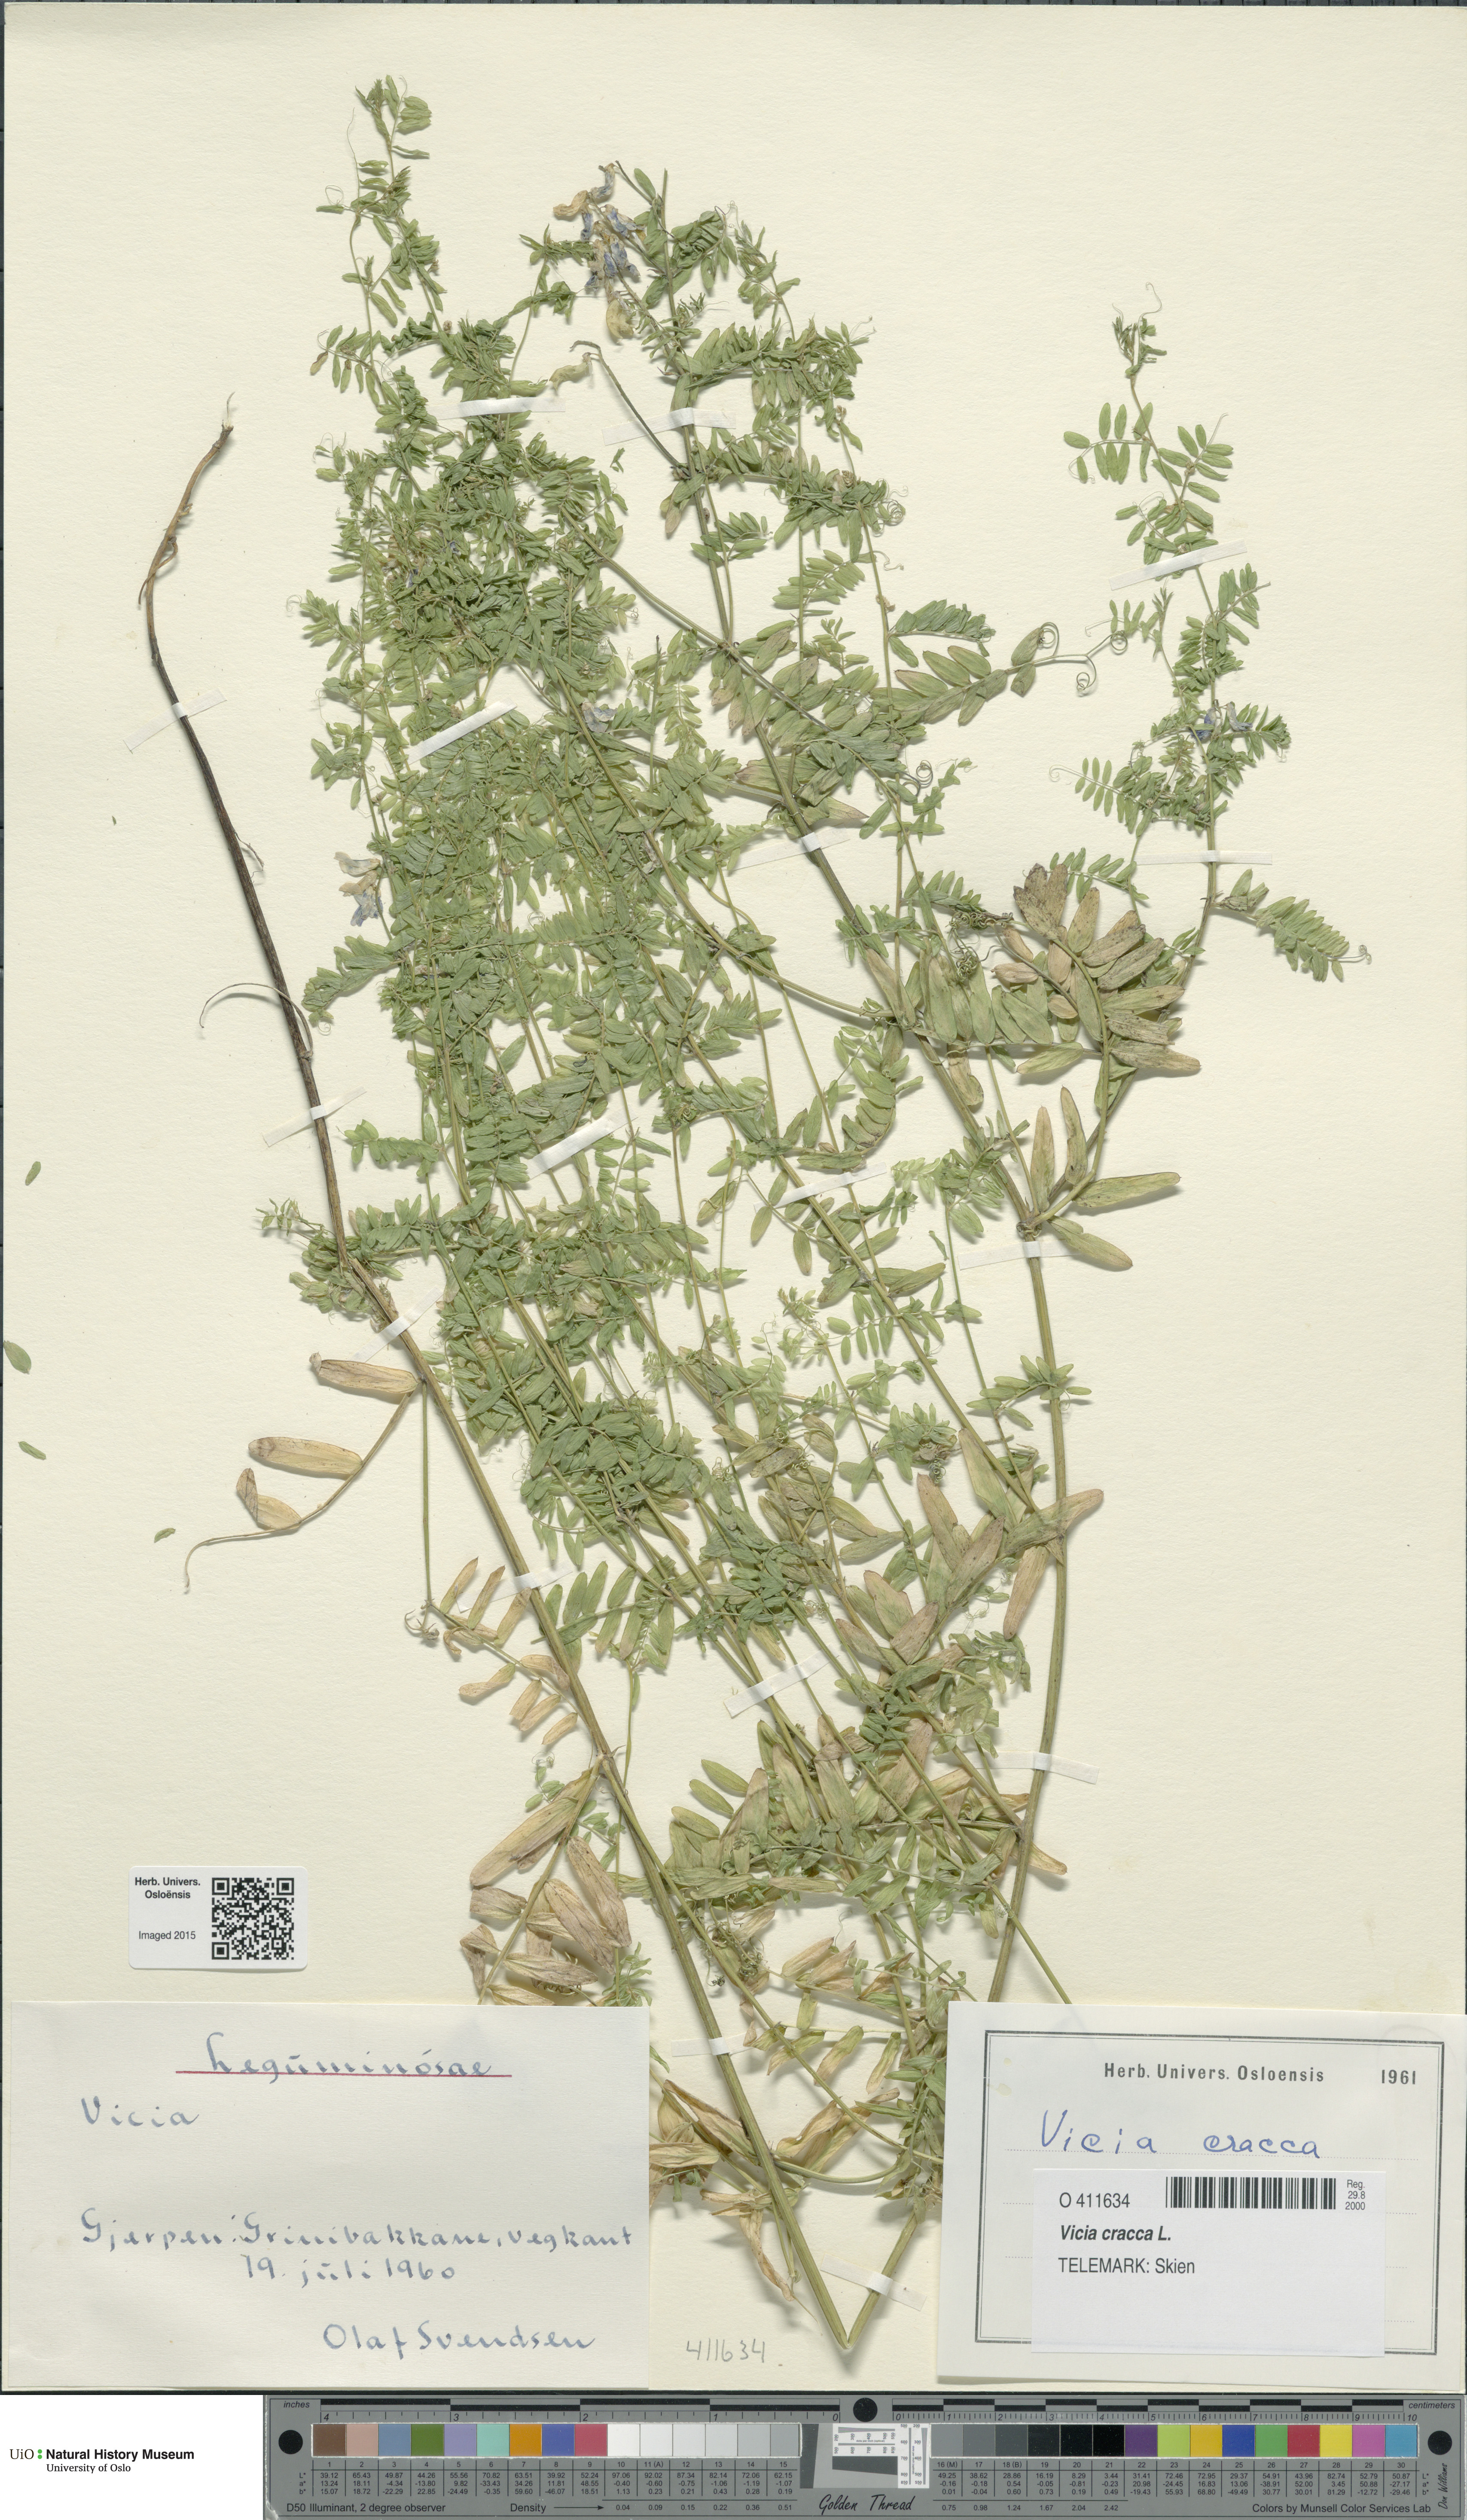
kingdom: Plantae
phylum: Tracheophyta
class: Magnoliopsida
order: Fabales
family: Fabaceae
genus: Vicia
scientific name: Vicia cracca
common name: Bird vetch
